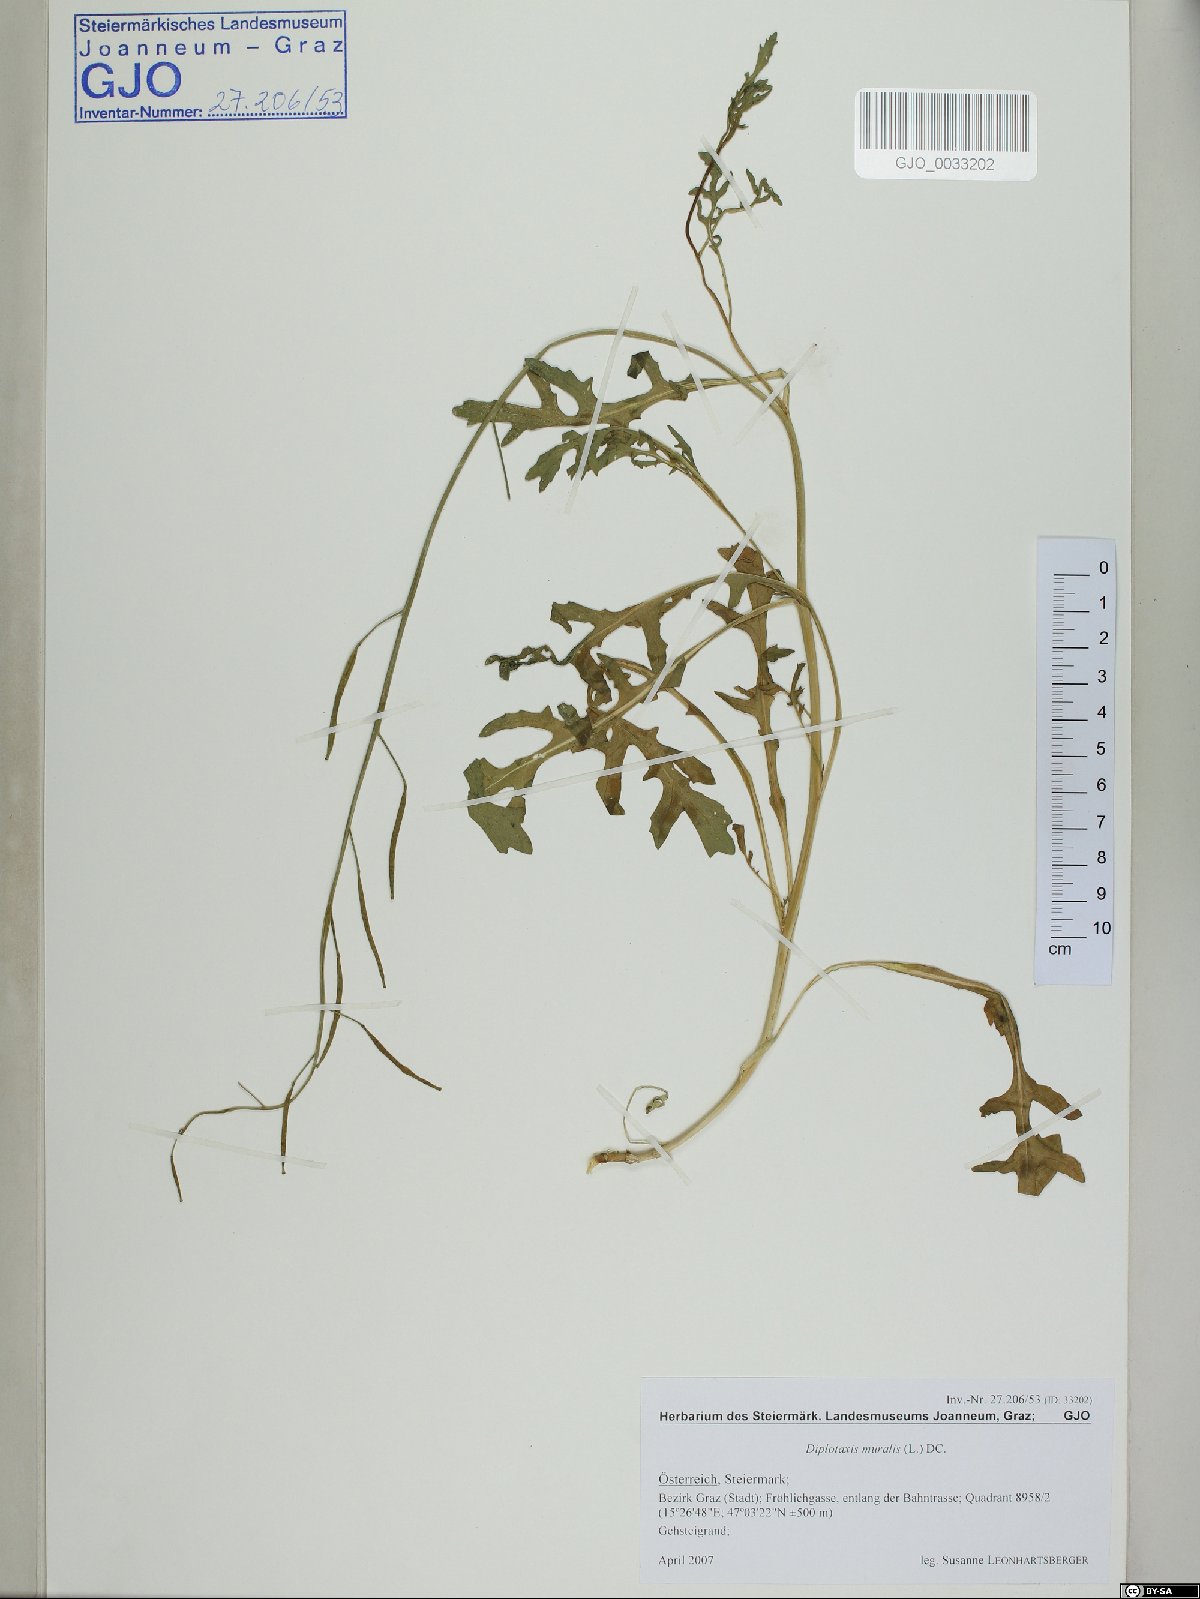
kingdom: Plantae
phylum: Tracheophyta
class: Magnoliopsida
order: Brassicales
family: Brassicaceae
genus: Diplotaxis
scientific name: Diplotaxis tenuifolia
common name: Perennial wall-rocket
